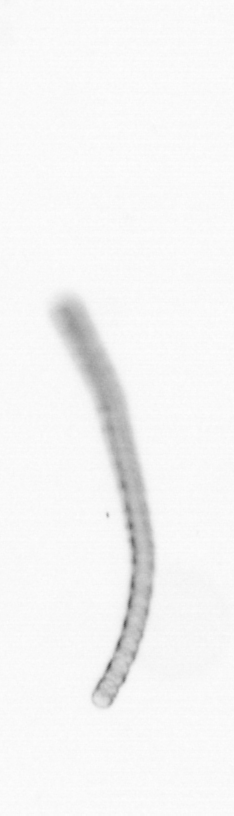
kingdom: Chromista
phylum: Ochrophyta
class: Bacillariophyceae
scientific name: Bacillariophyceae
